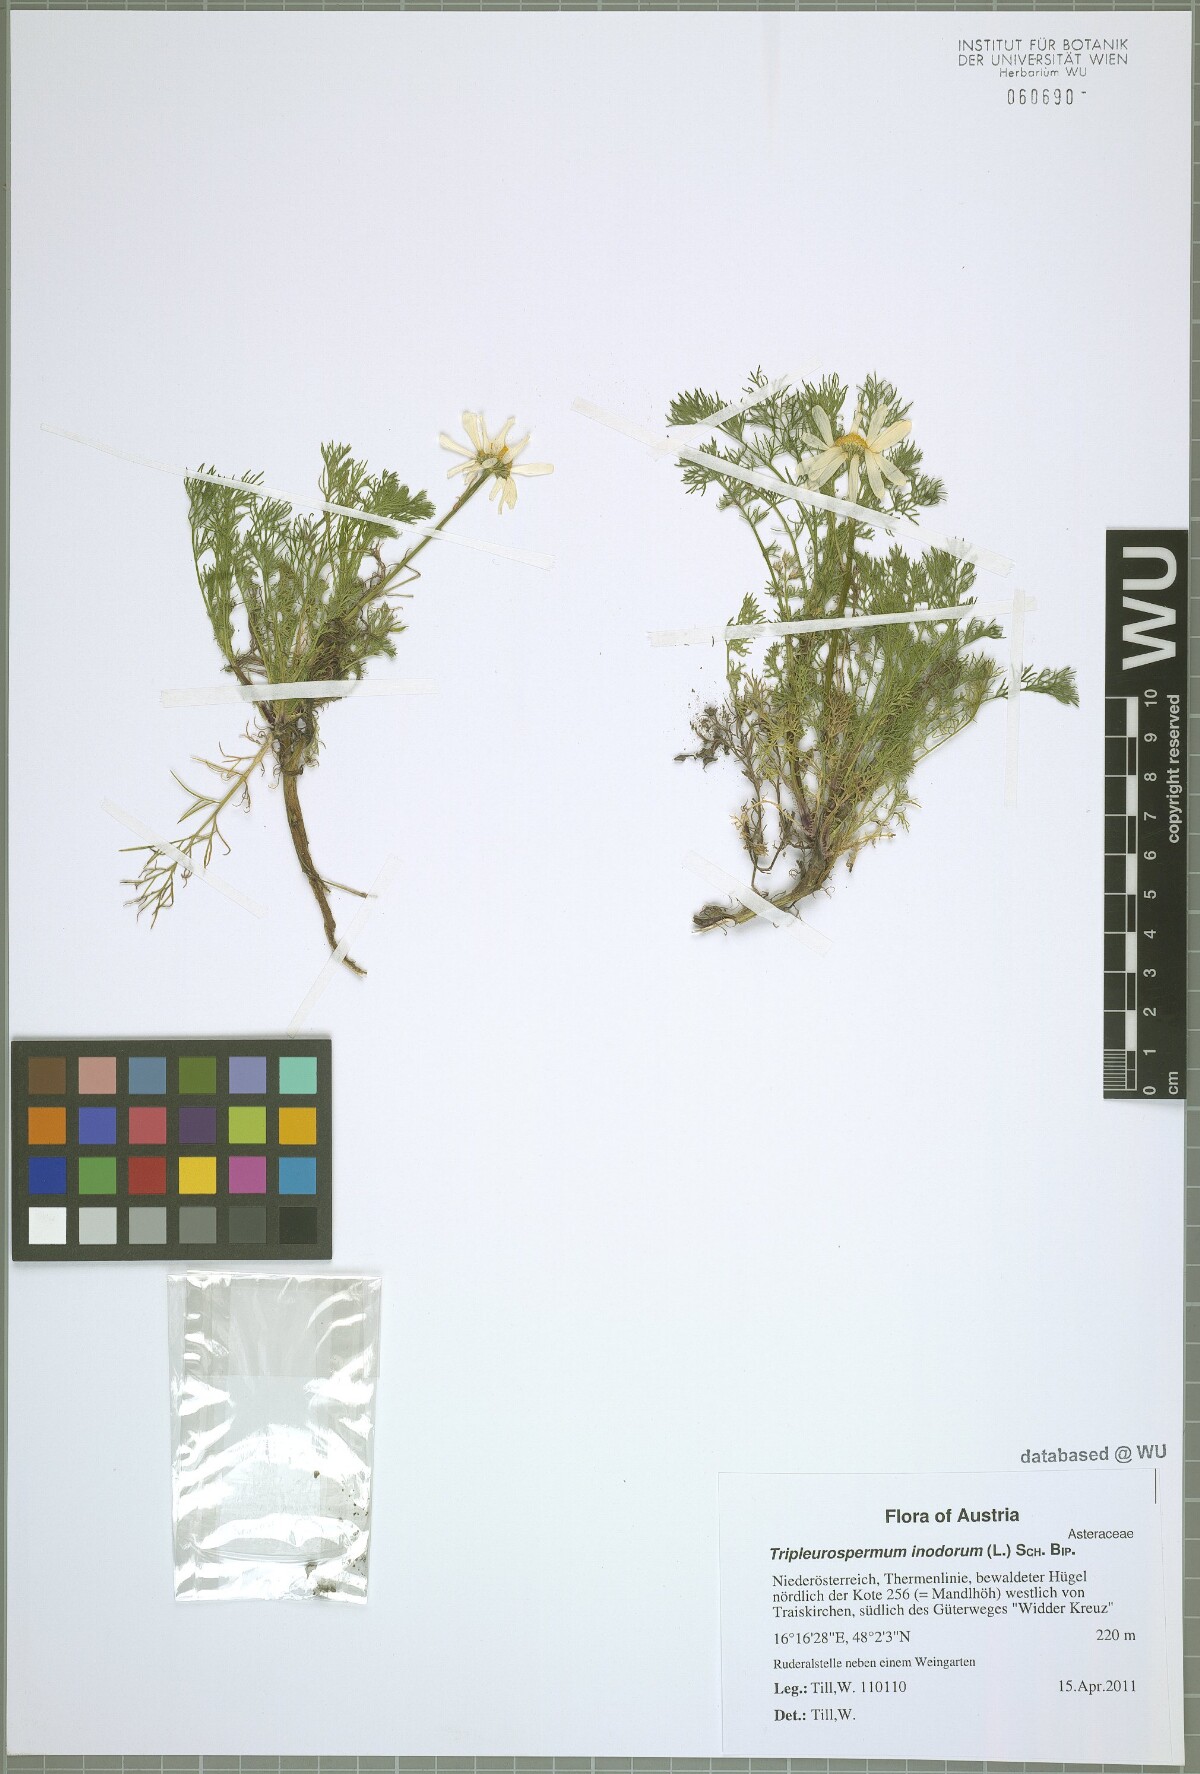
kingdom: Plantae
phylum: Tracheophyta
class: Magnoliopsida
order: Asterales
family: Asteraceae
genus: Tripleurospermum
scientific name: Tripleurospermum inodorum
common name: Scentless mayweed
